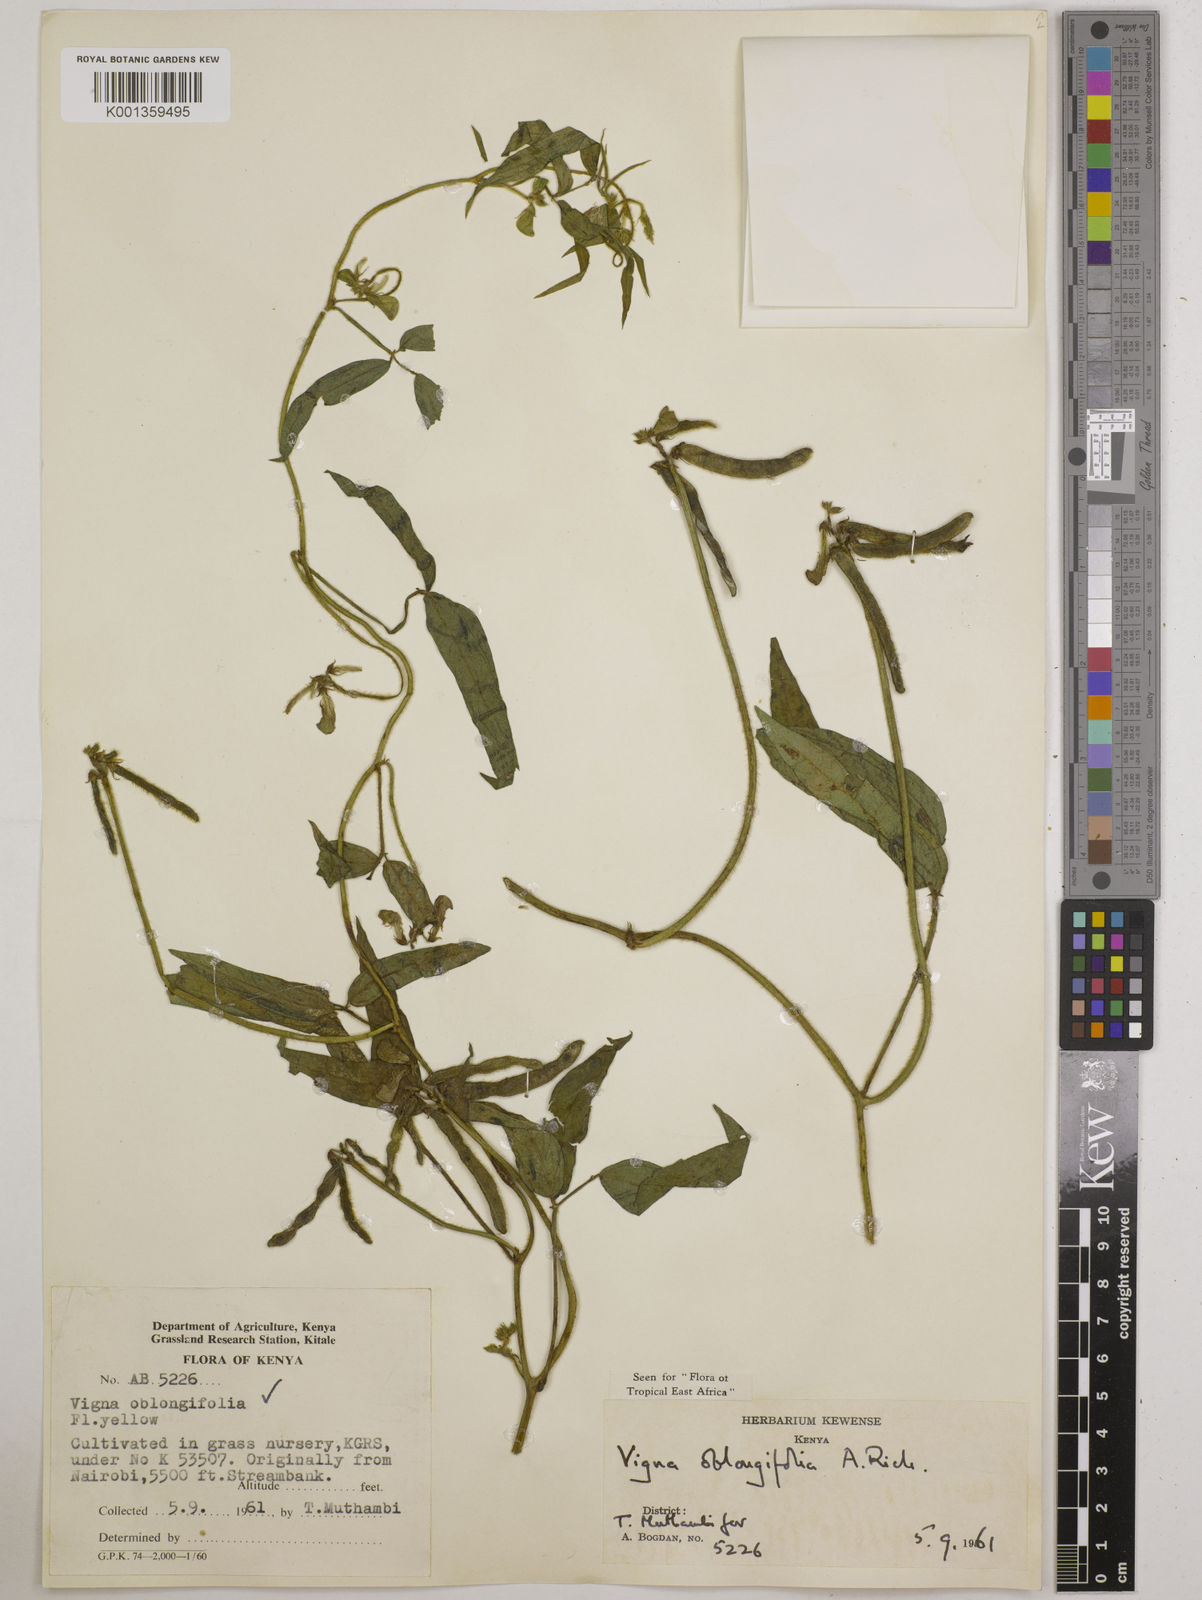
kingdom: Plantae
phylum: Tracheophyta
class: Magnoliopsida
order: Fabales
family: Fabaceae
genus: Vigna
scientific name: Vigna oblongifolia
